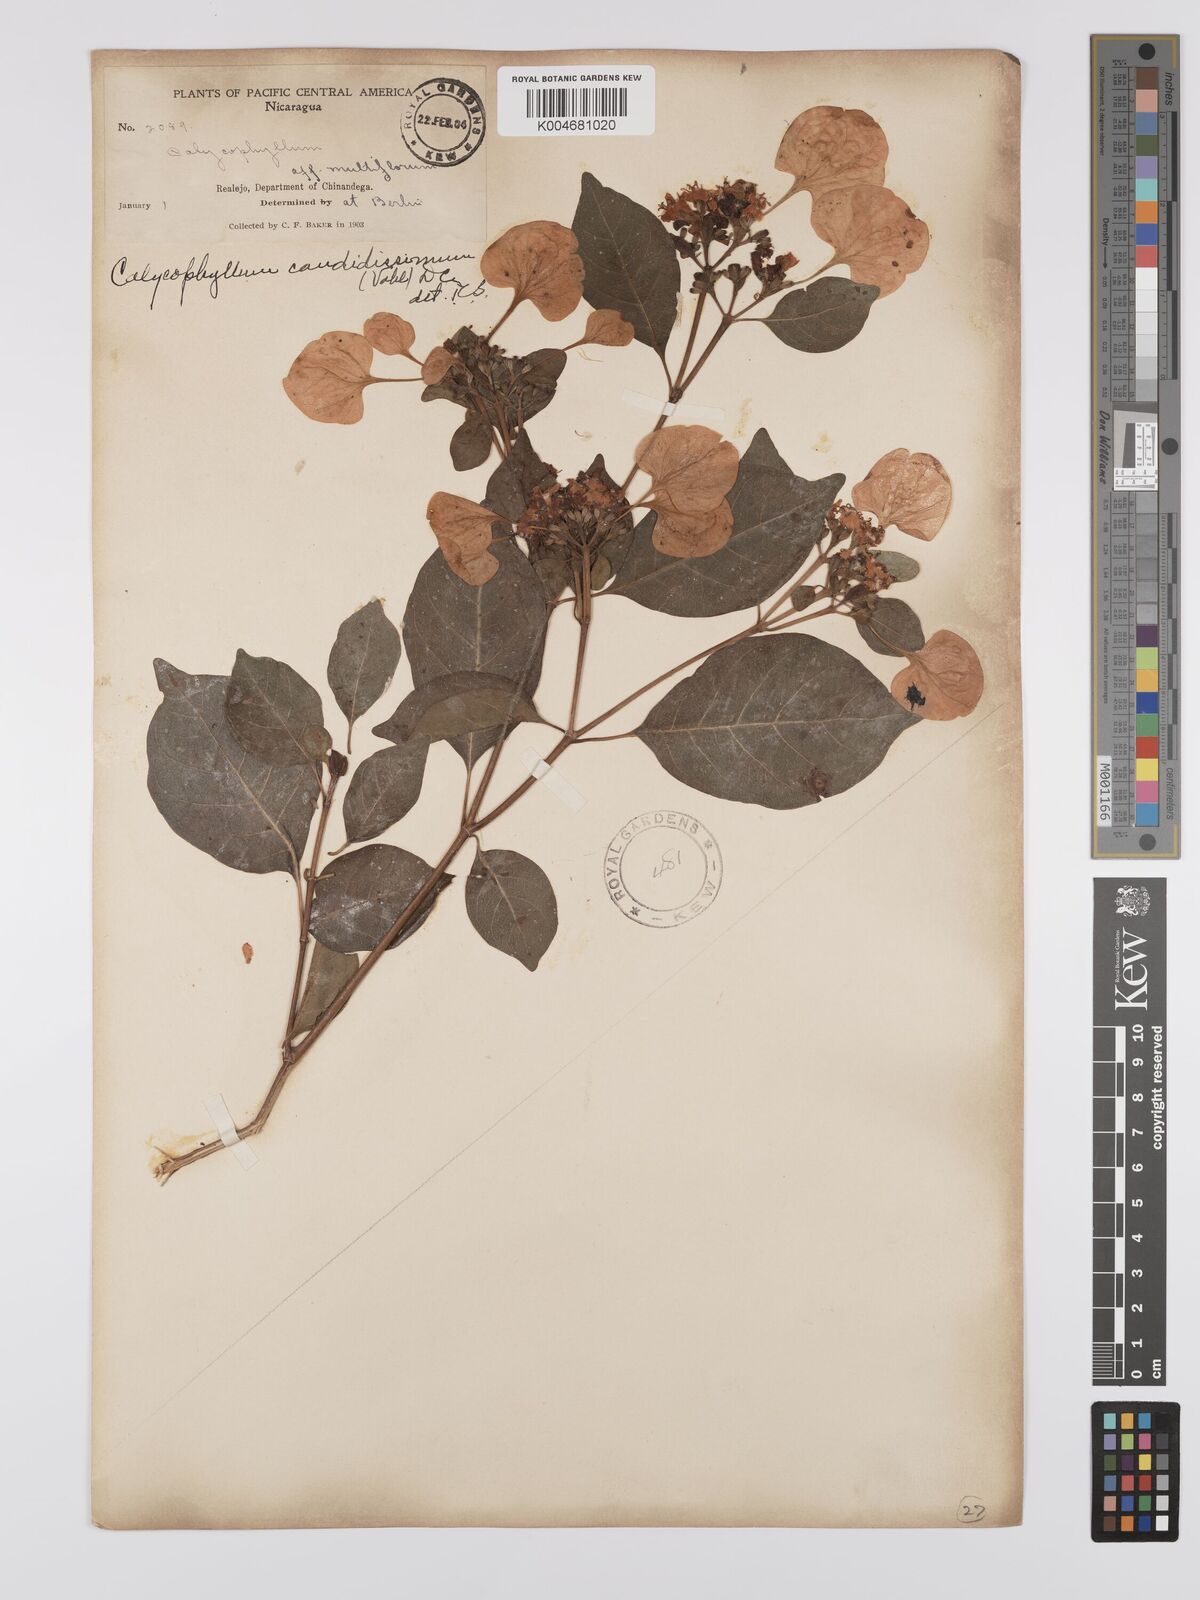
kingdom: Plantae
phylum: Tracheophyta
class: Magnoliopsida
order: Gentianales
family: Rubiaceae
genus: Calycophyllum
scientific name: Calycophyllum candidissimum
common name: Dagame
